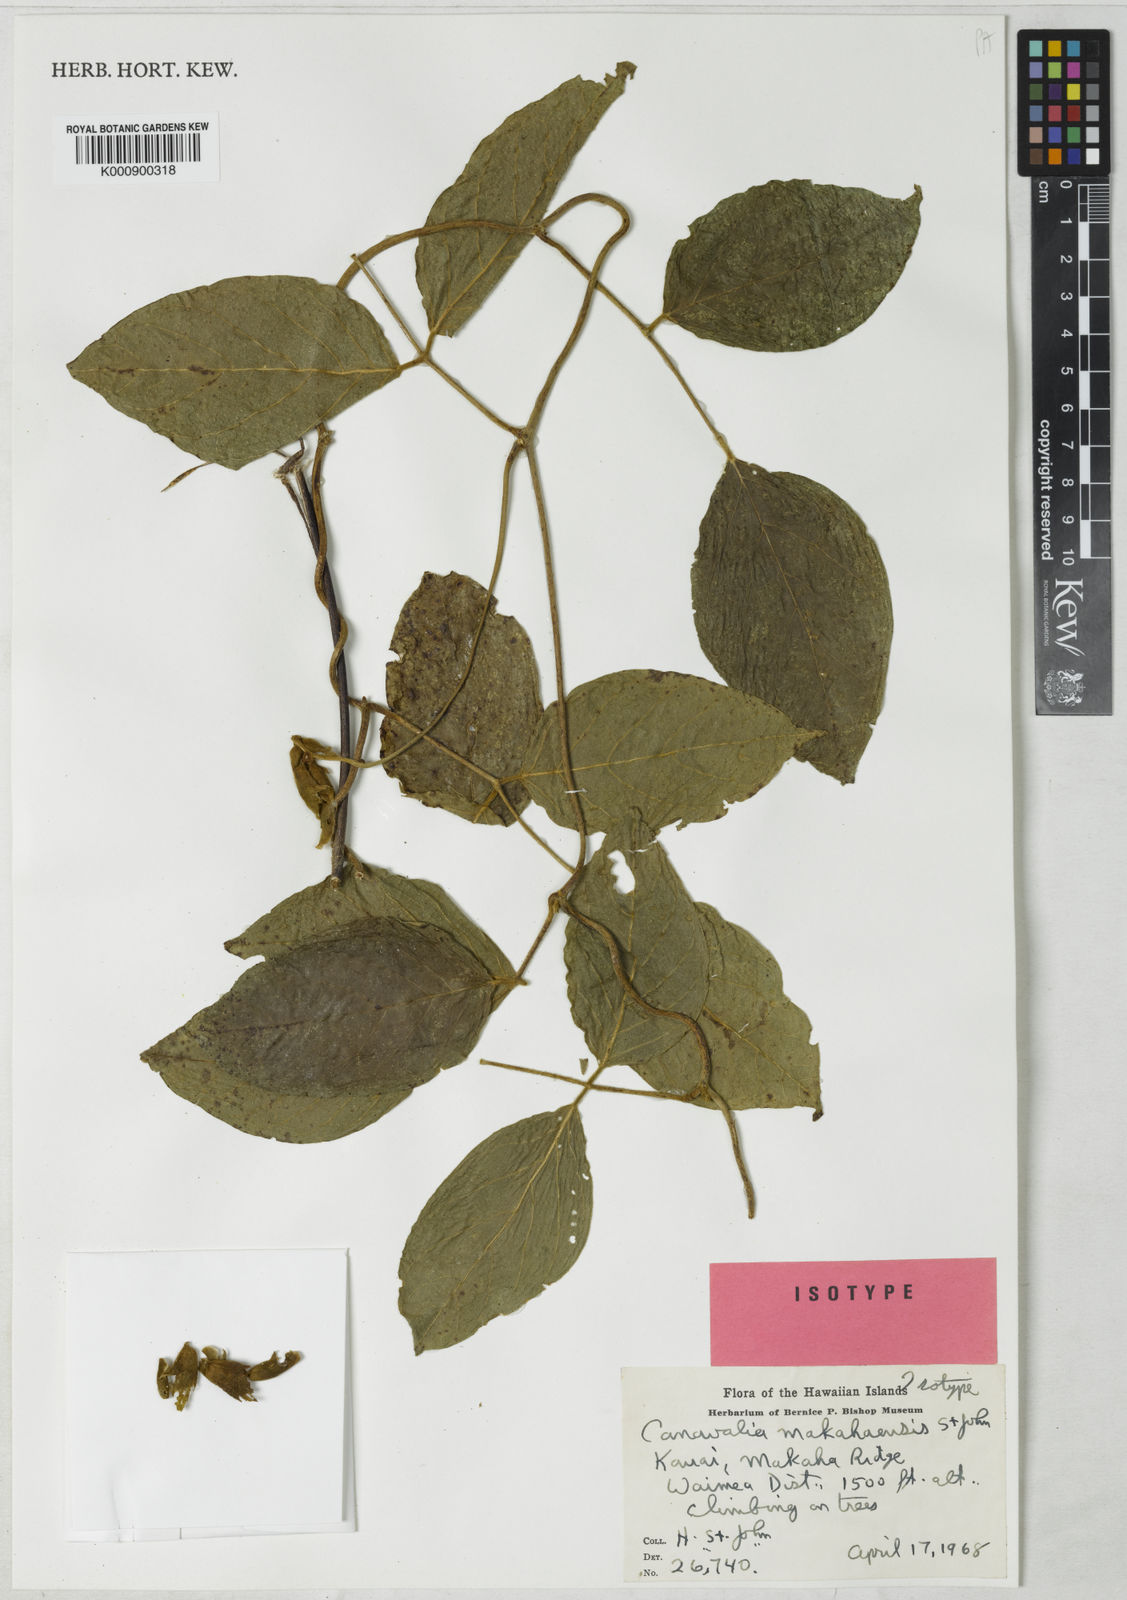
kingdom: Plantae
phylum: Tracheophyta
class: Magnoliopsida
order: Fabales
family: Fabaceae
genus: Canavalia
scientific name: Canavalia napaliensis
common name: Jack-bean
